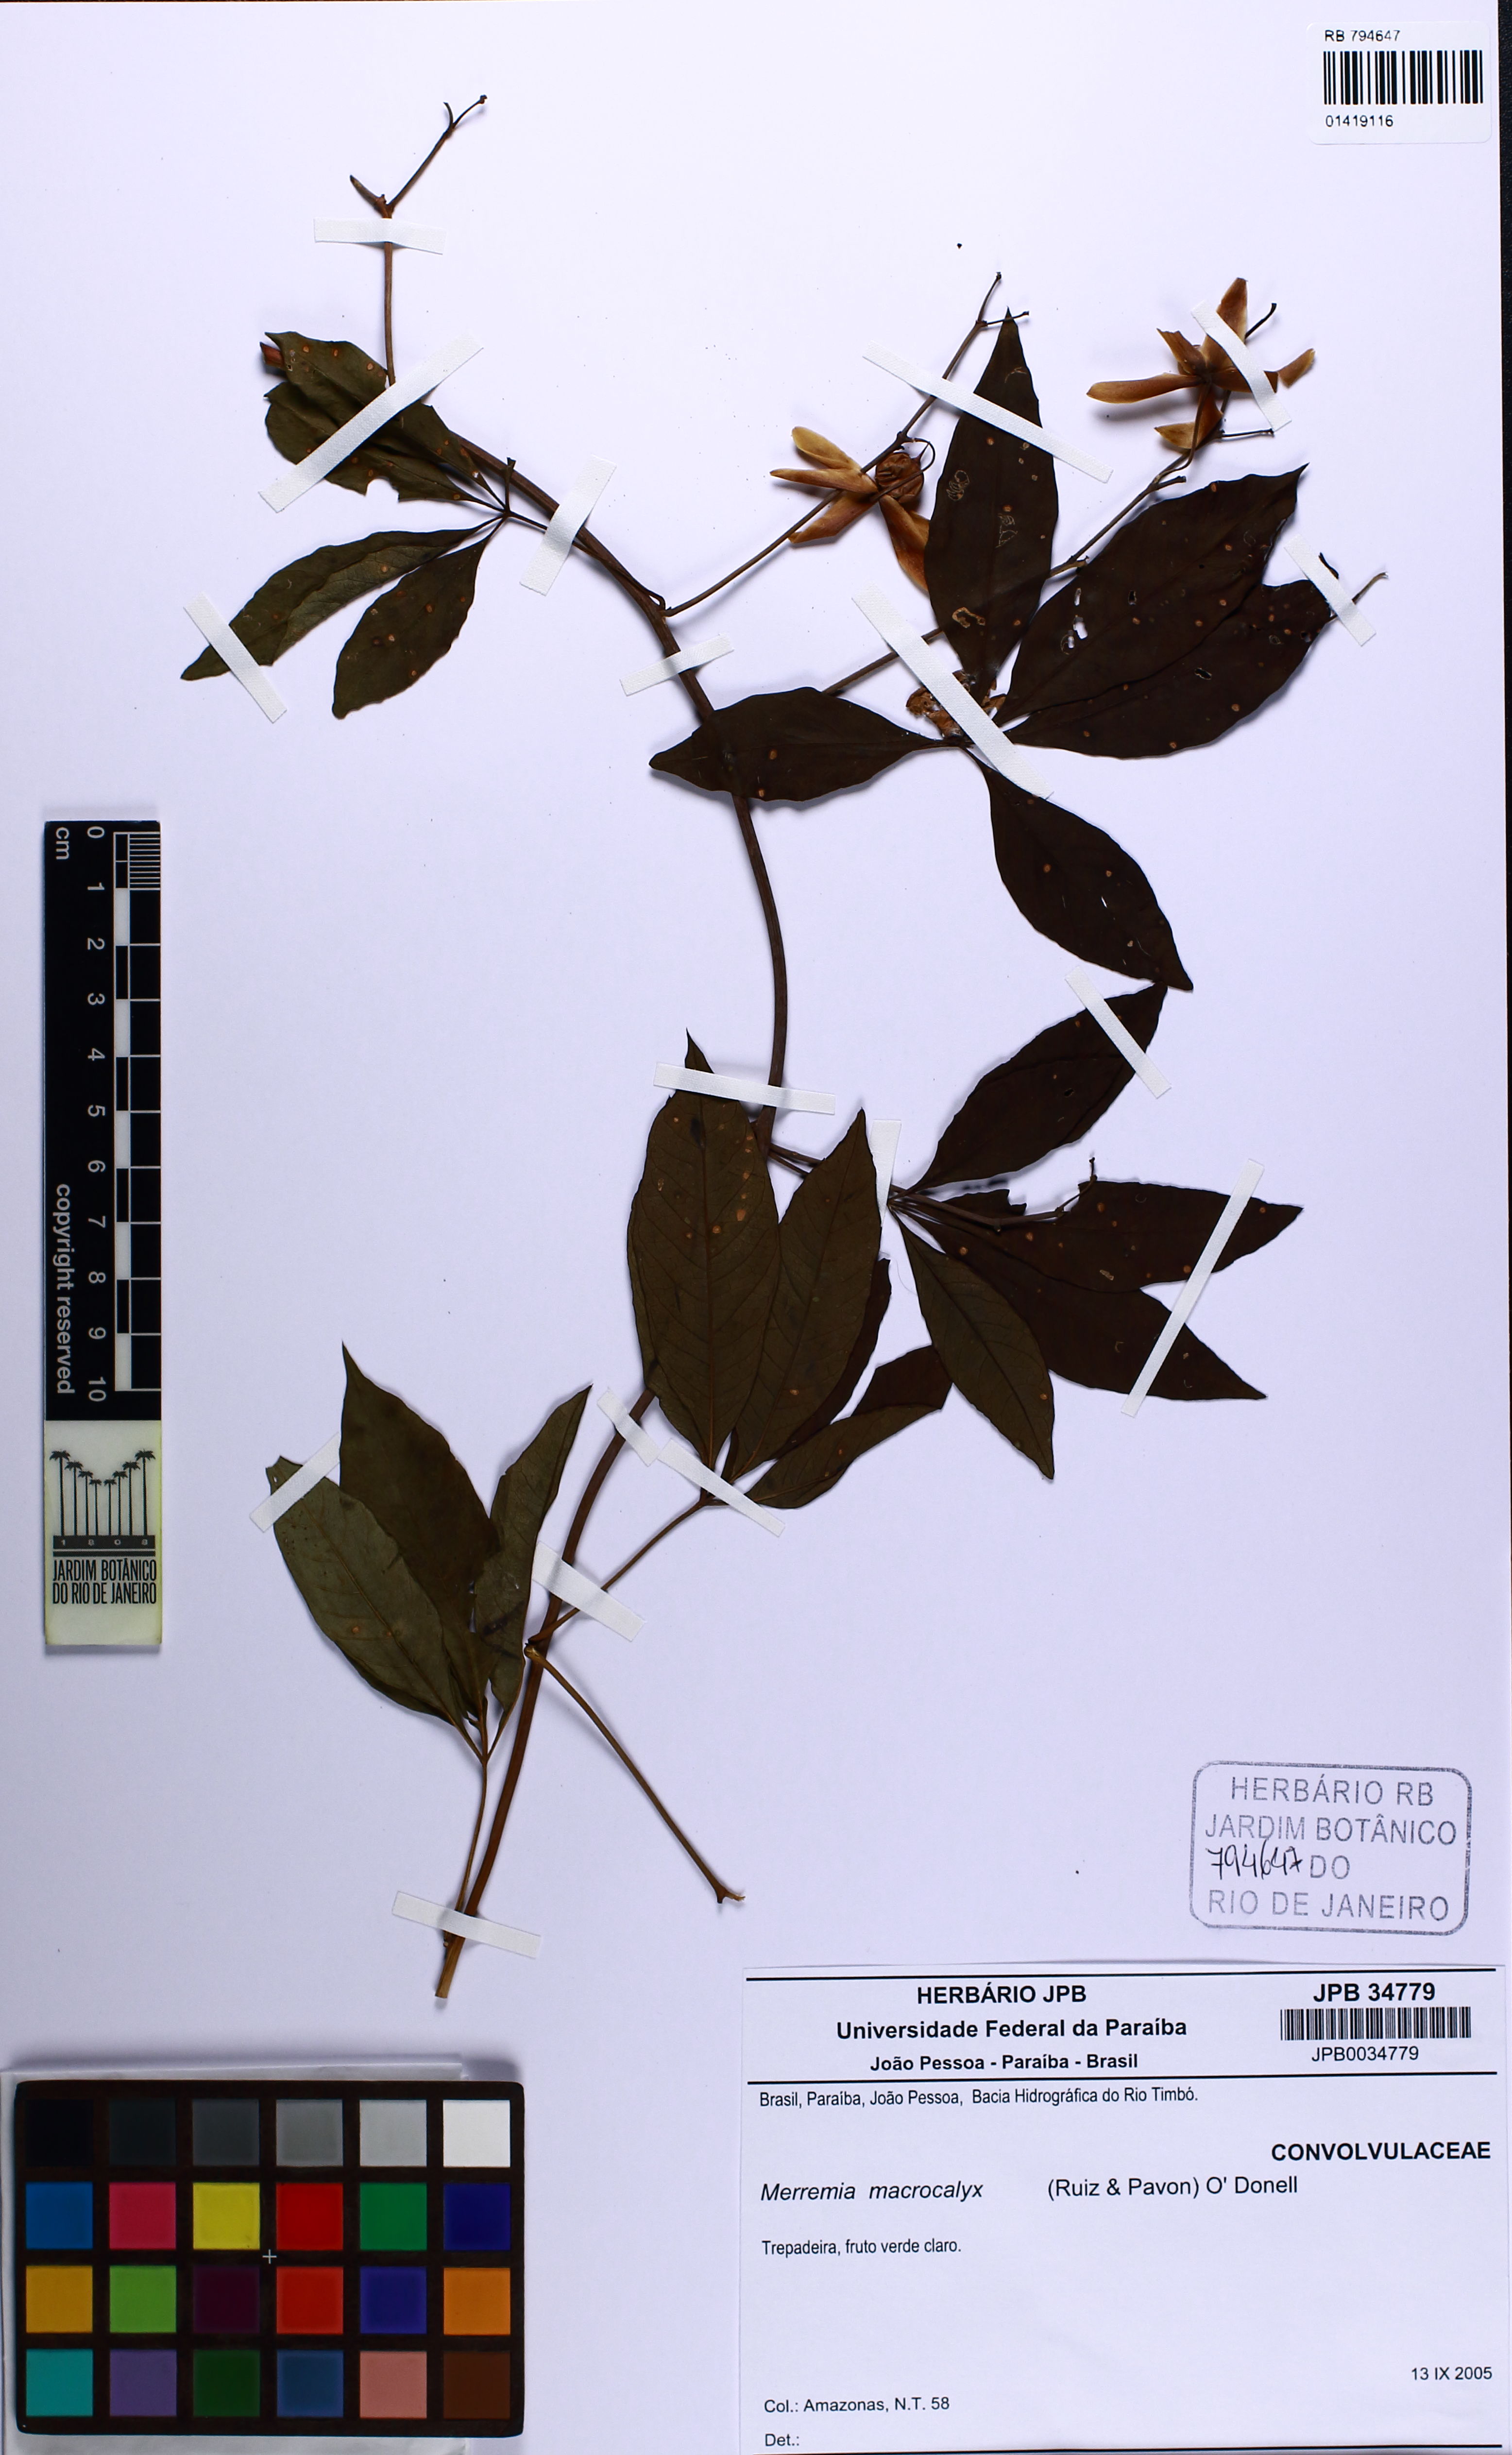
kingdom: Plantae
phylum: Tracheophyta
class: Magnoliopsida
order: Solanales
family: Convolvulaceae
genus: Distimake
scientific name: Distimake macrocalyx
